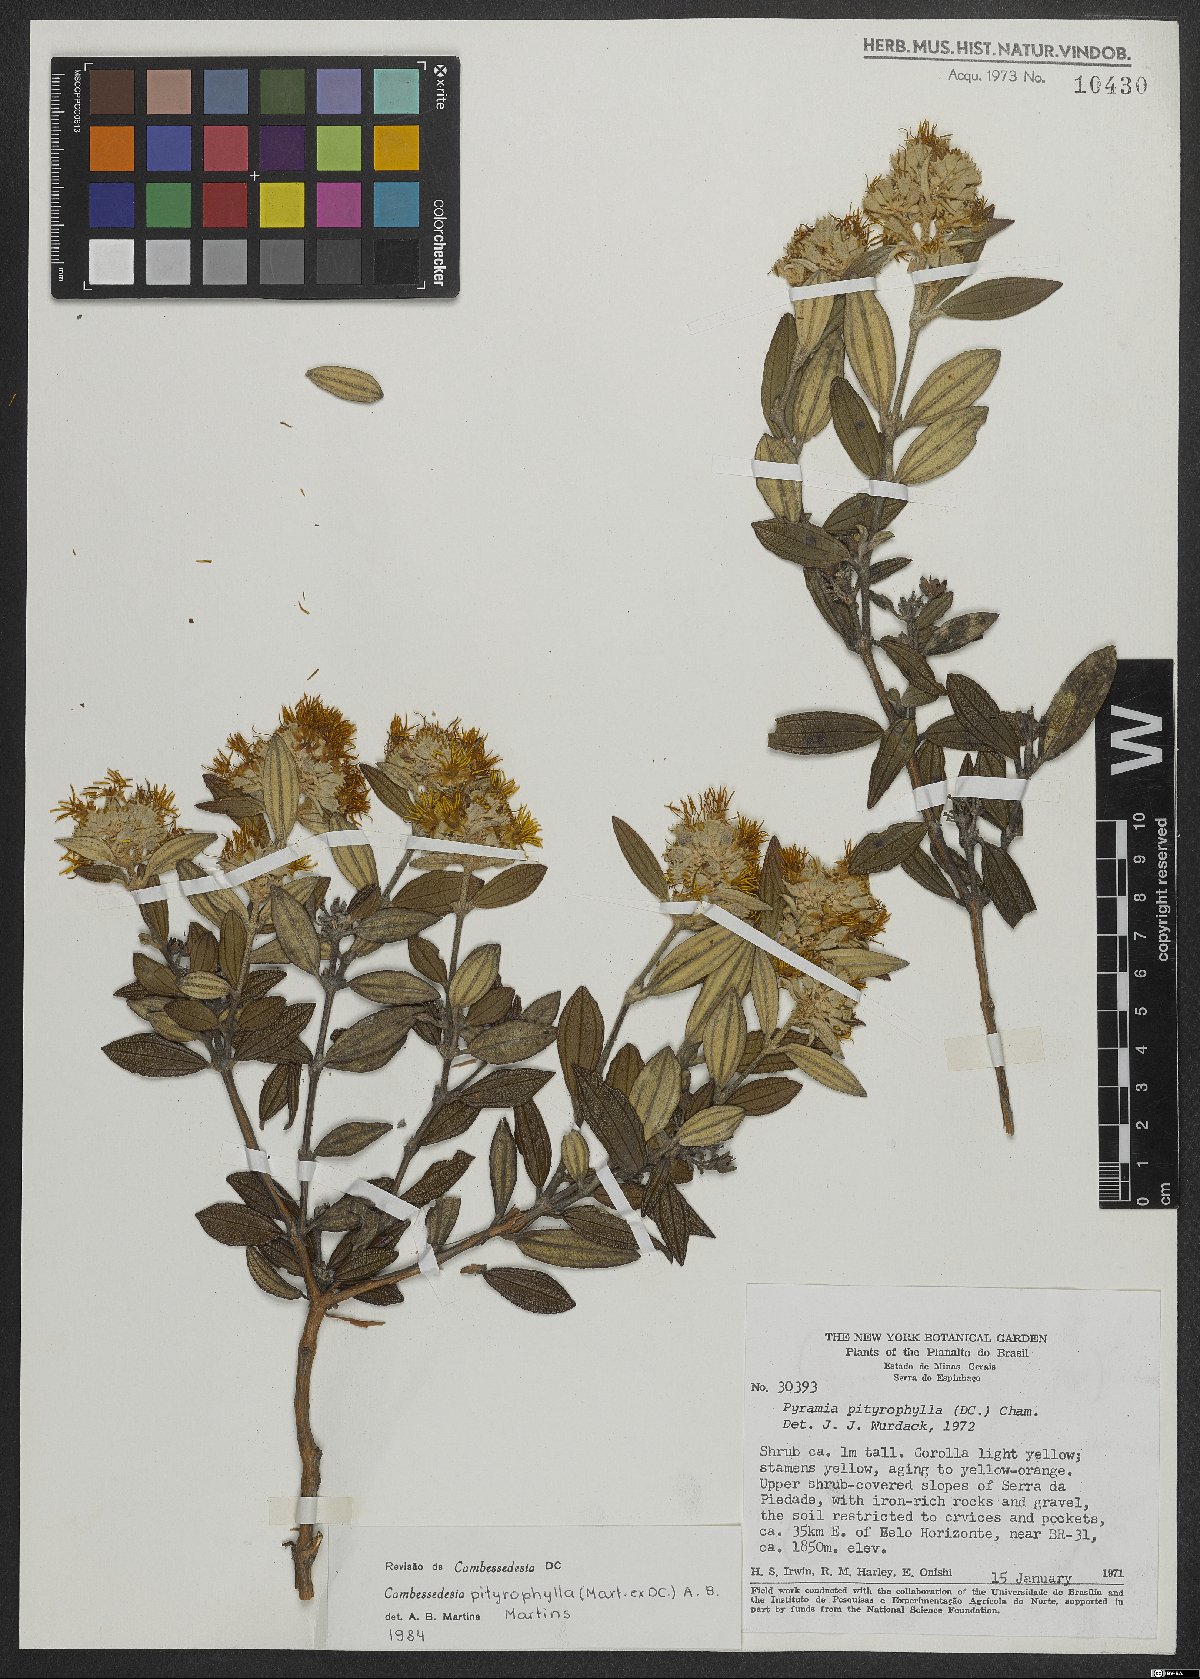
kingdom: Plantae
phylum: Tracheophyta
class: Magnoliopsida
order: Myrtales
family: Melastomataceae
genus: Cambessedesia
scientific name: Cambessedesia pityrophylla
